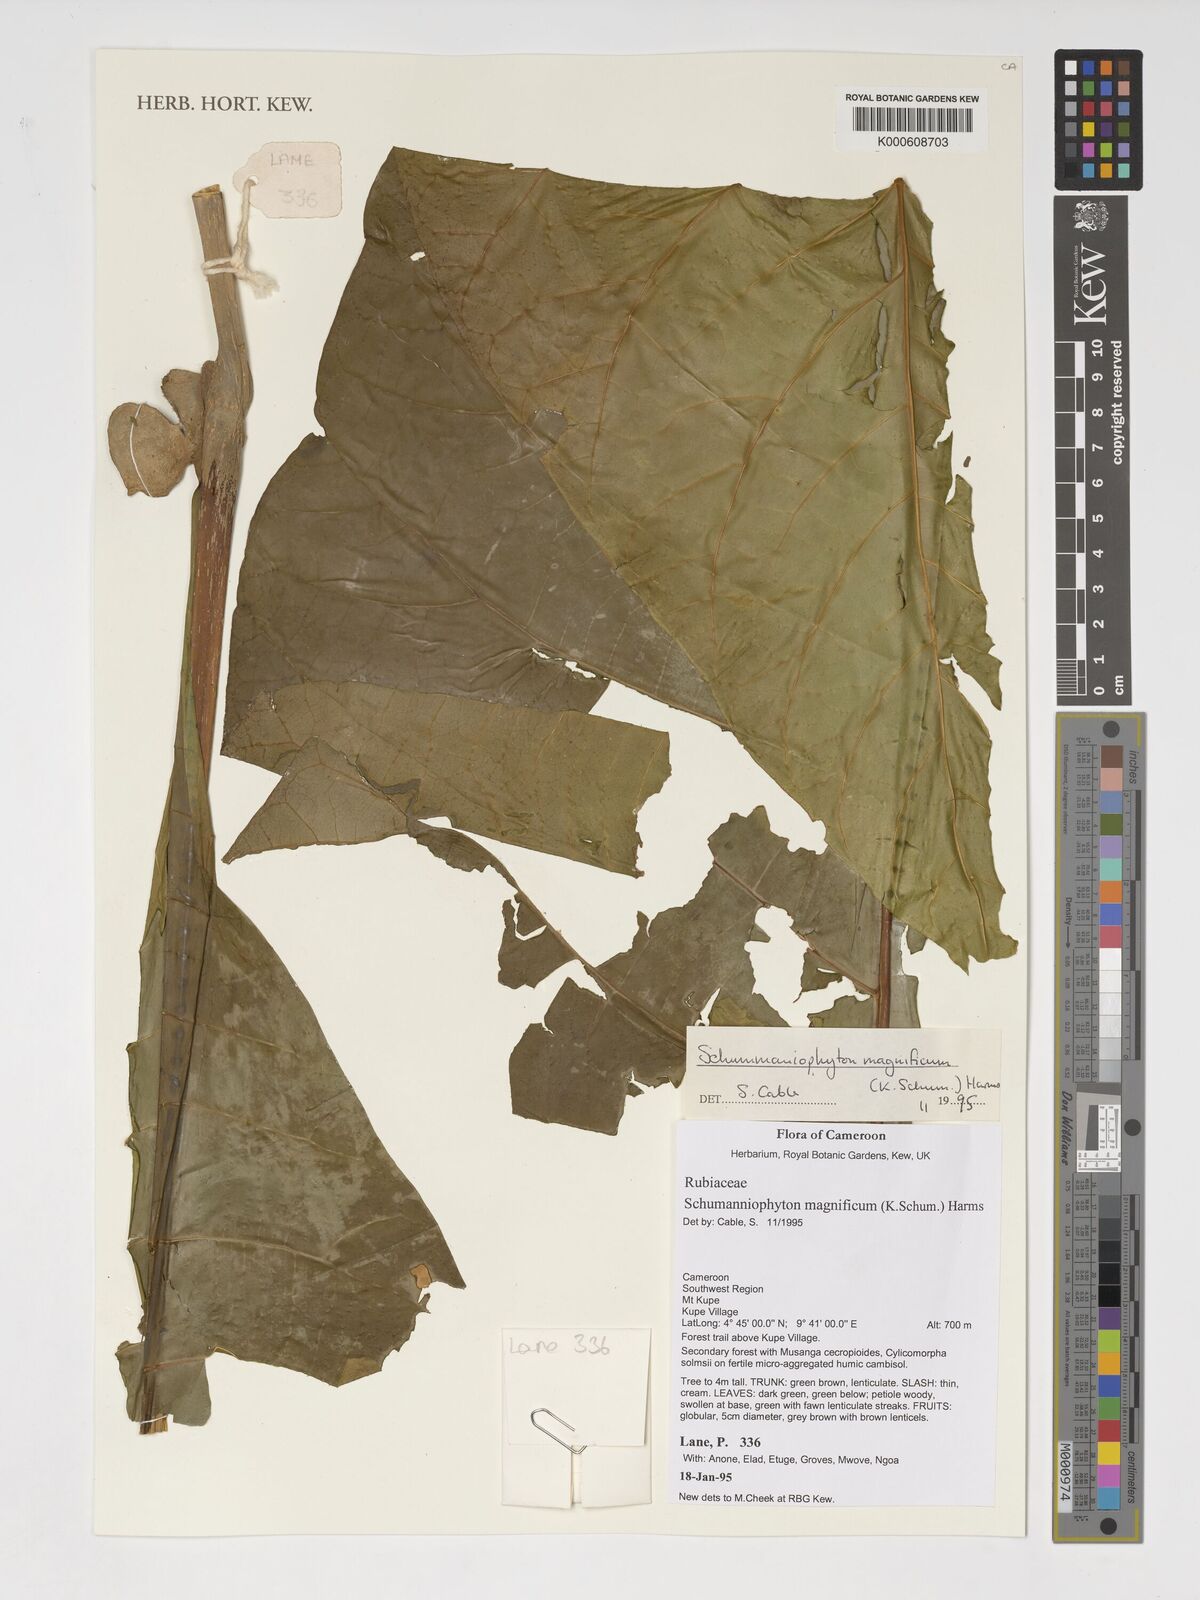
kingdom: Plantae
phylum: Tracheophyta
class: Magnoliopsida
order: Gentianales
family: Rubiaceae
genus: Schumanniophyton
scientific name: Schumanniophyton magnificum
